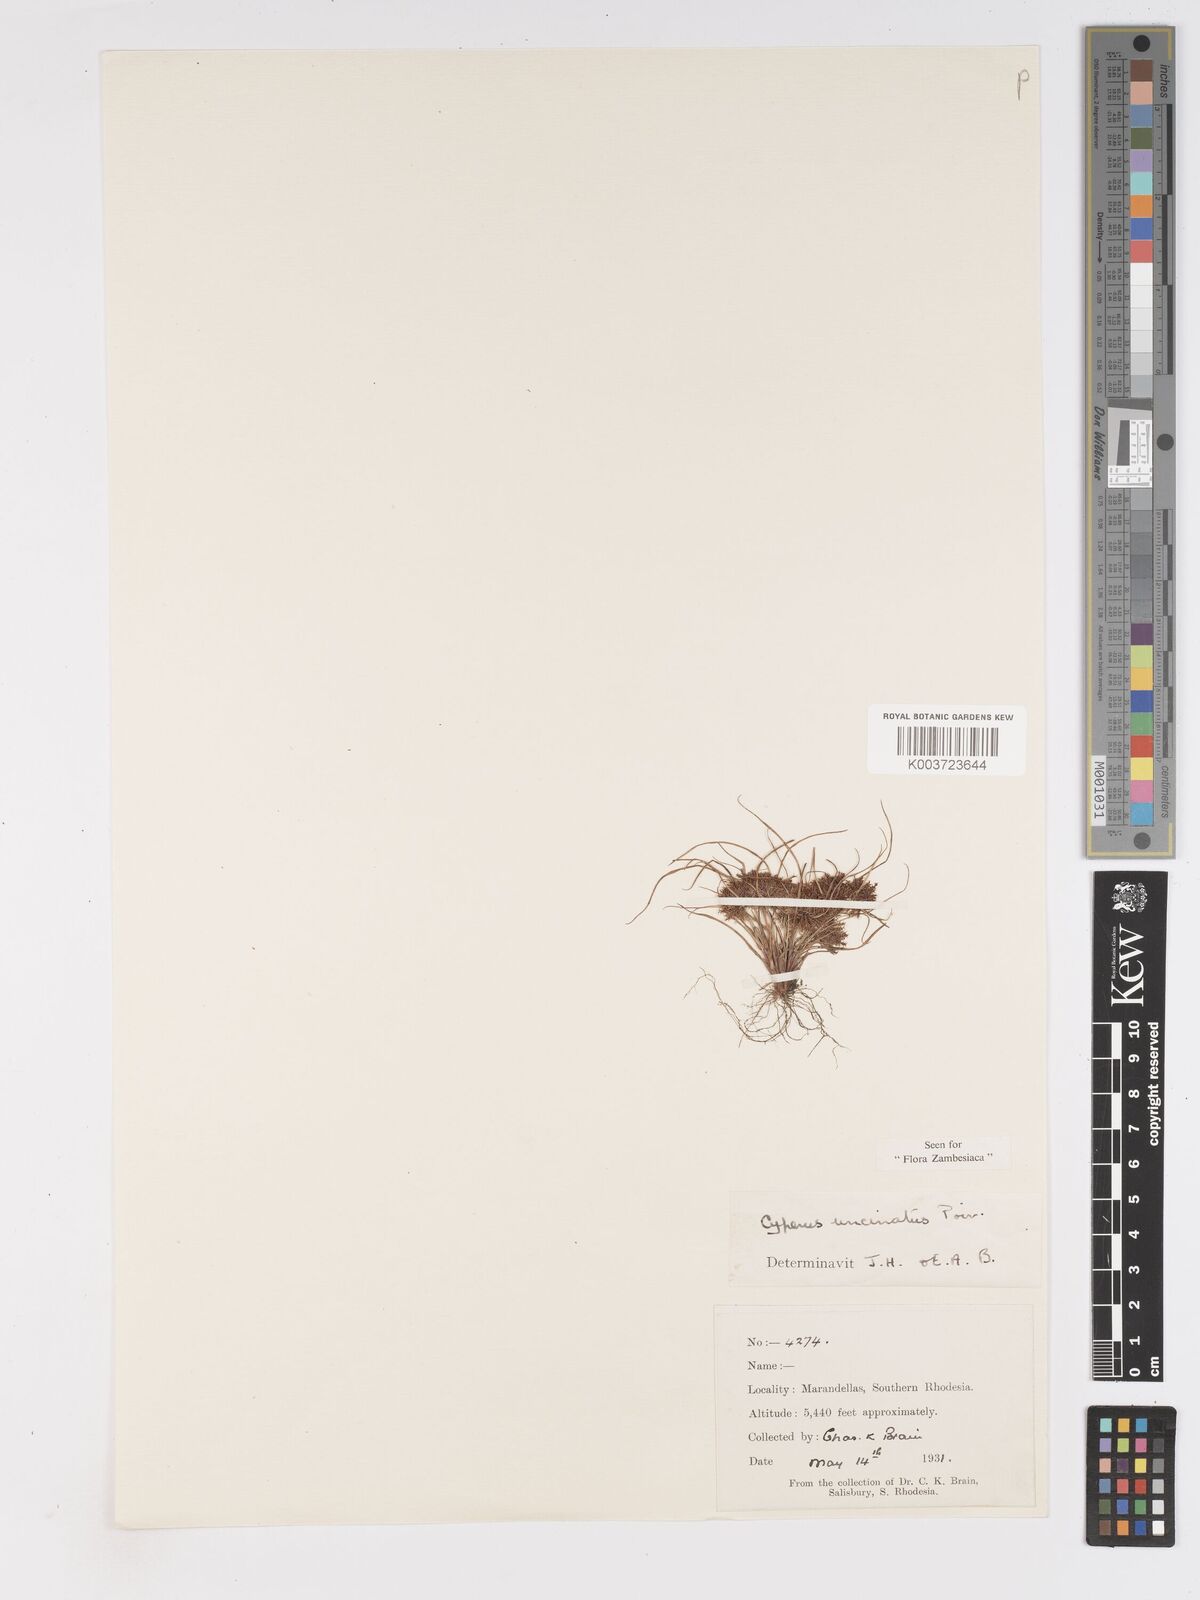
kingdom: Plantae
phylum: Tracheophyta
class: Liliopsida
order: Poales
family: Cyperaceae
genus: Cyperus
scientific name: Cyperus betafensis
